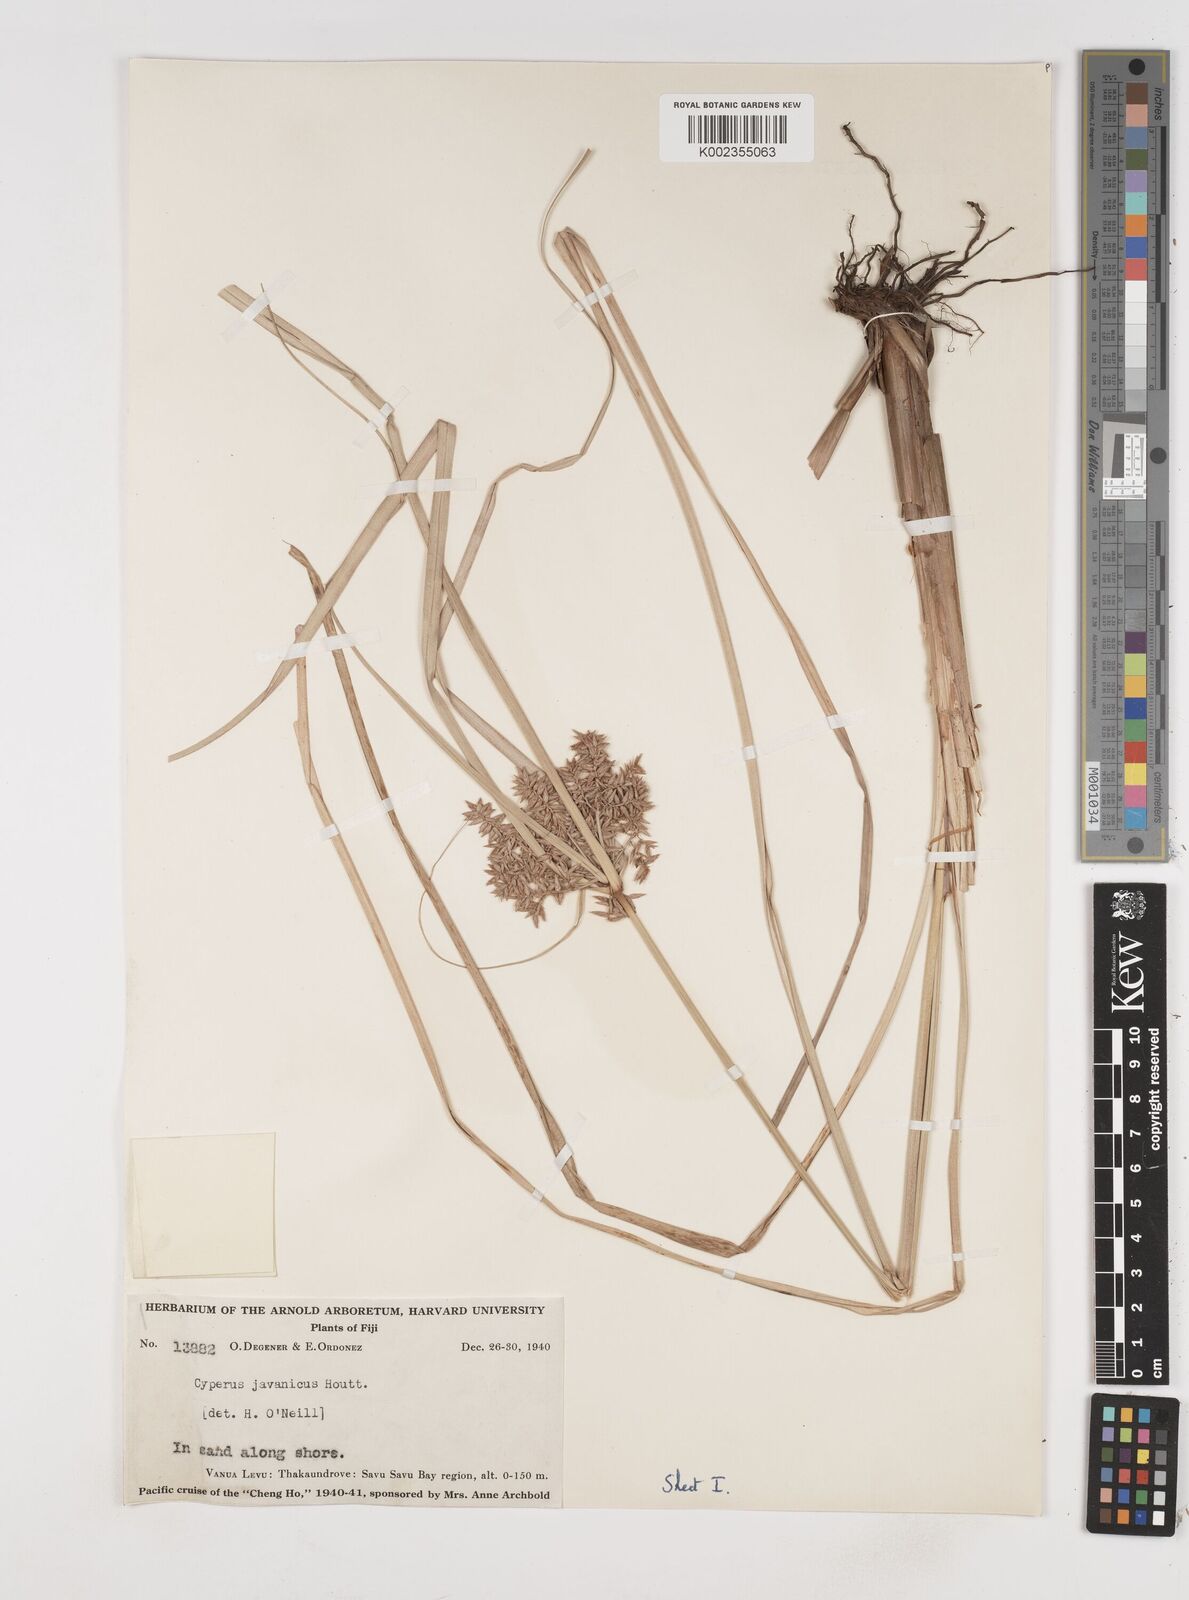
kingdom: Plantae
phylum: Tracheophyta
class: Liliopsida
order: Poales
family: Cyperaceae
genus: Cyperus
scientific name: Cyperus javanicus
